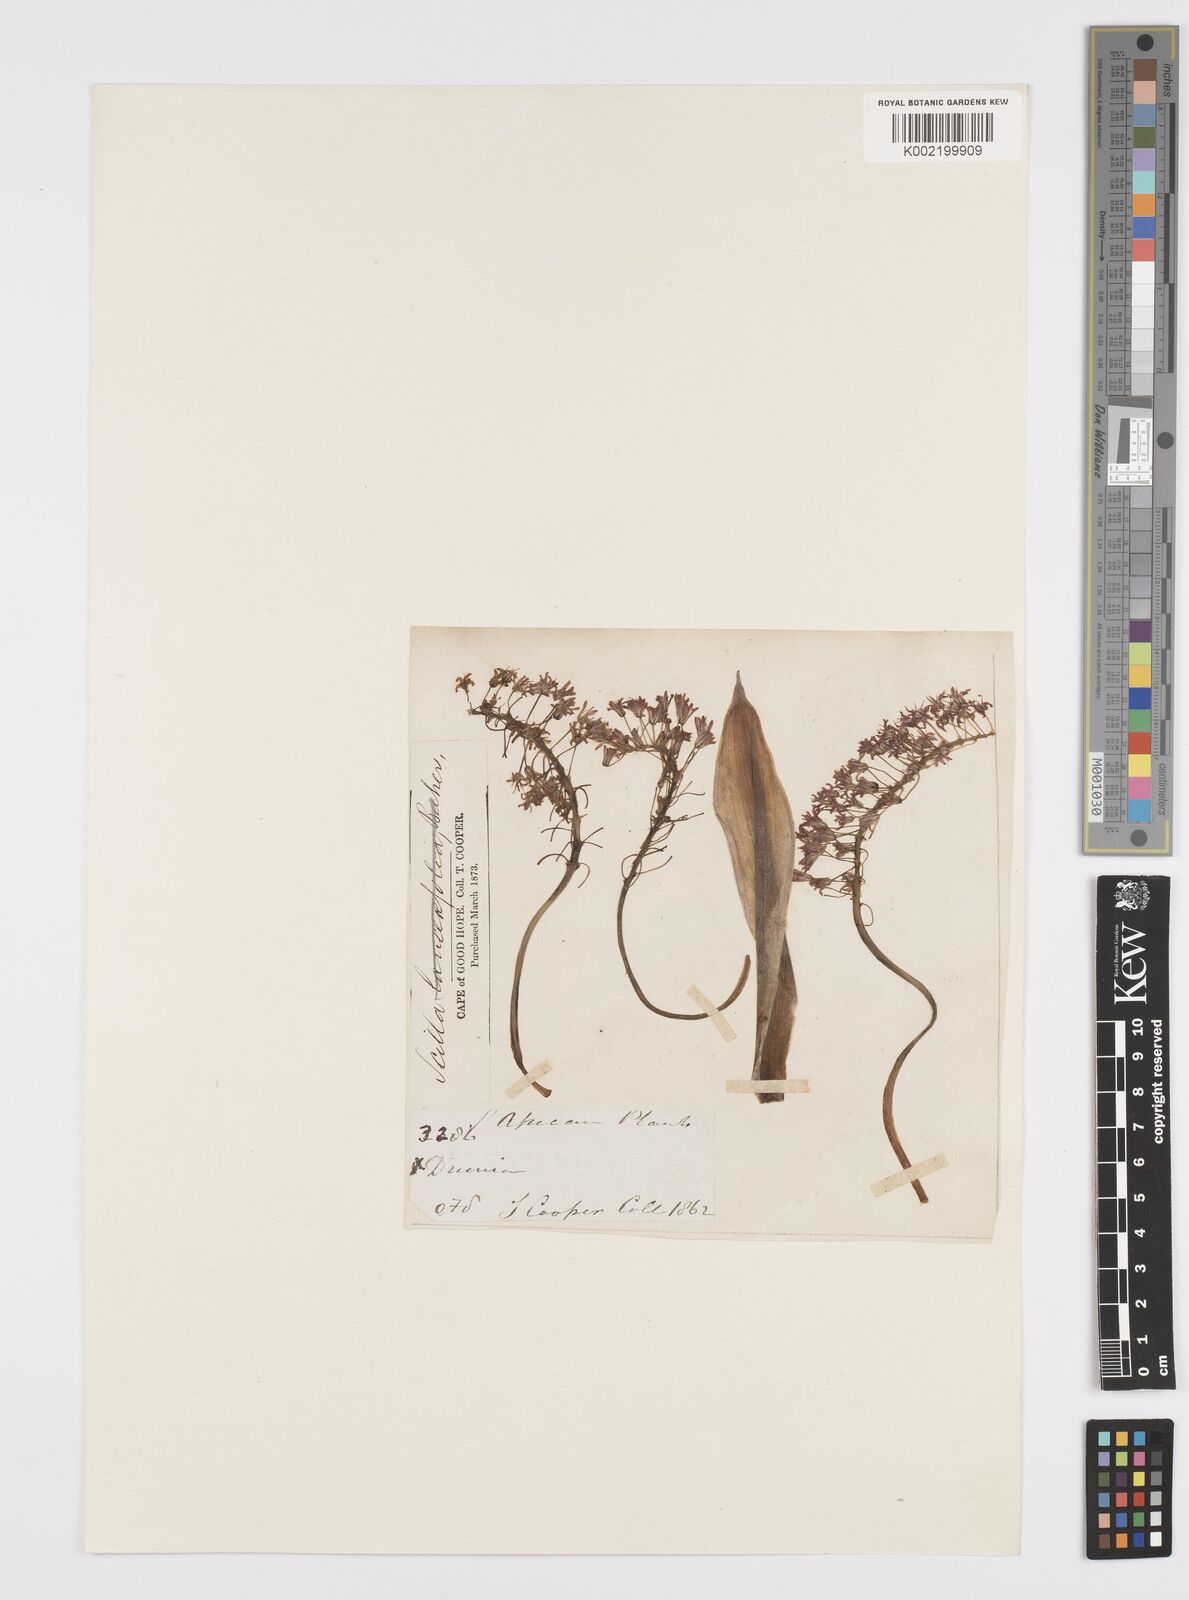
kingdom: Plantae
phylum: Tracheophyta
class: Liliopsida
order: Asparagales
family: Asparagaceae
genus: Ledebouria
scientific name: Ledebouria revoluta
